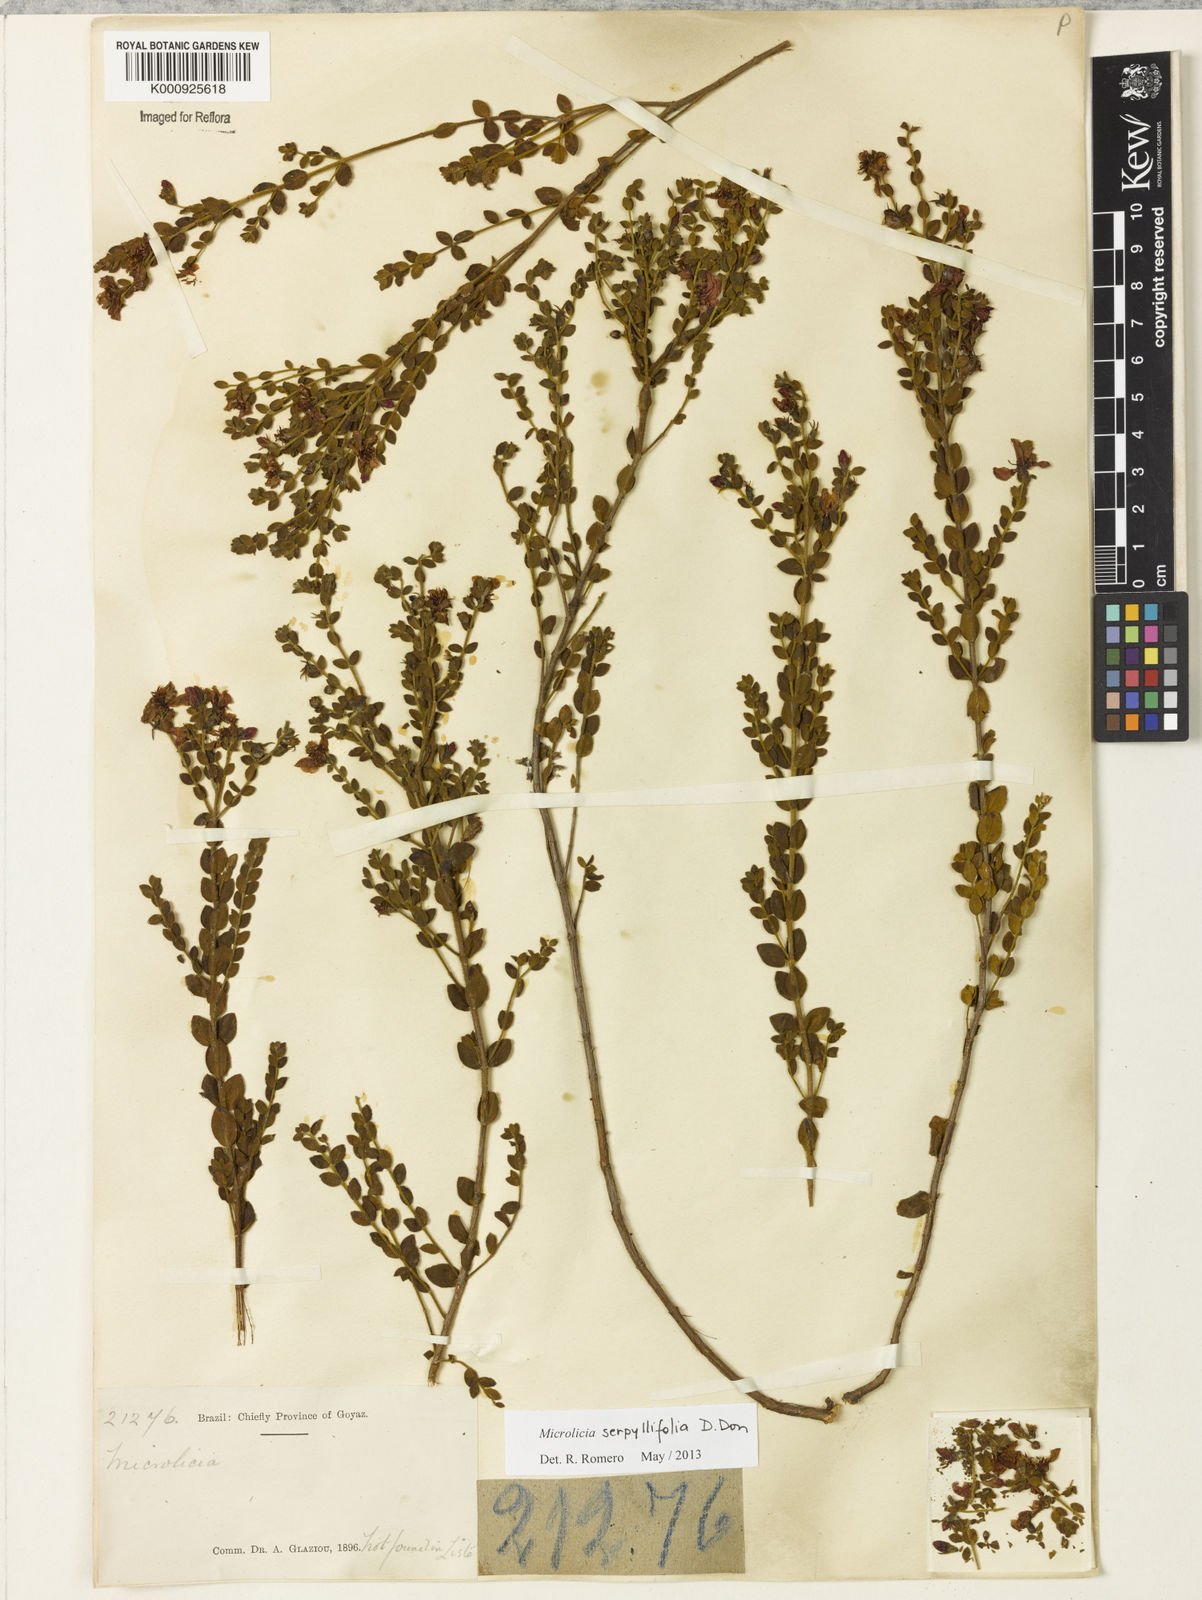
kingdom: Plantae
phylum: Tracheophyta
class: Magnoliopsida
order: Myrtales
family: Melastomataceae
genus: Microlicia
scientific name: Microlicia fulva
